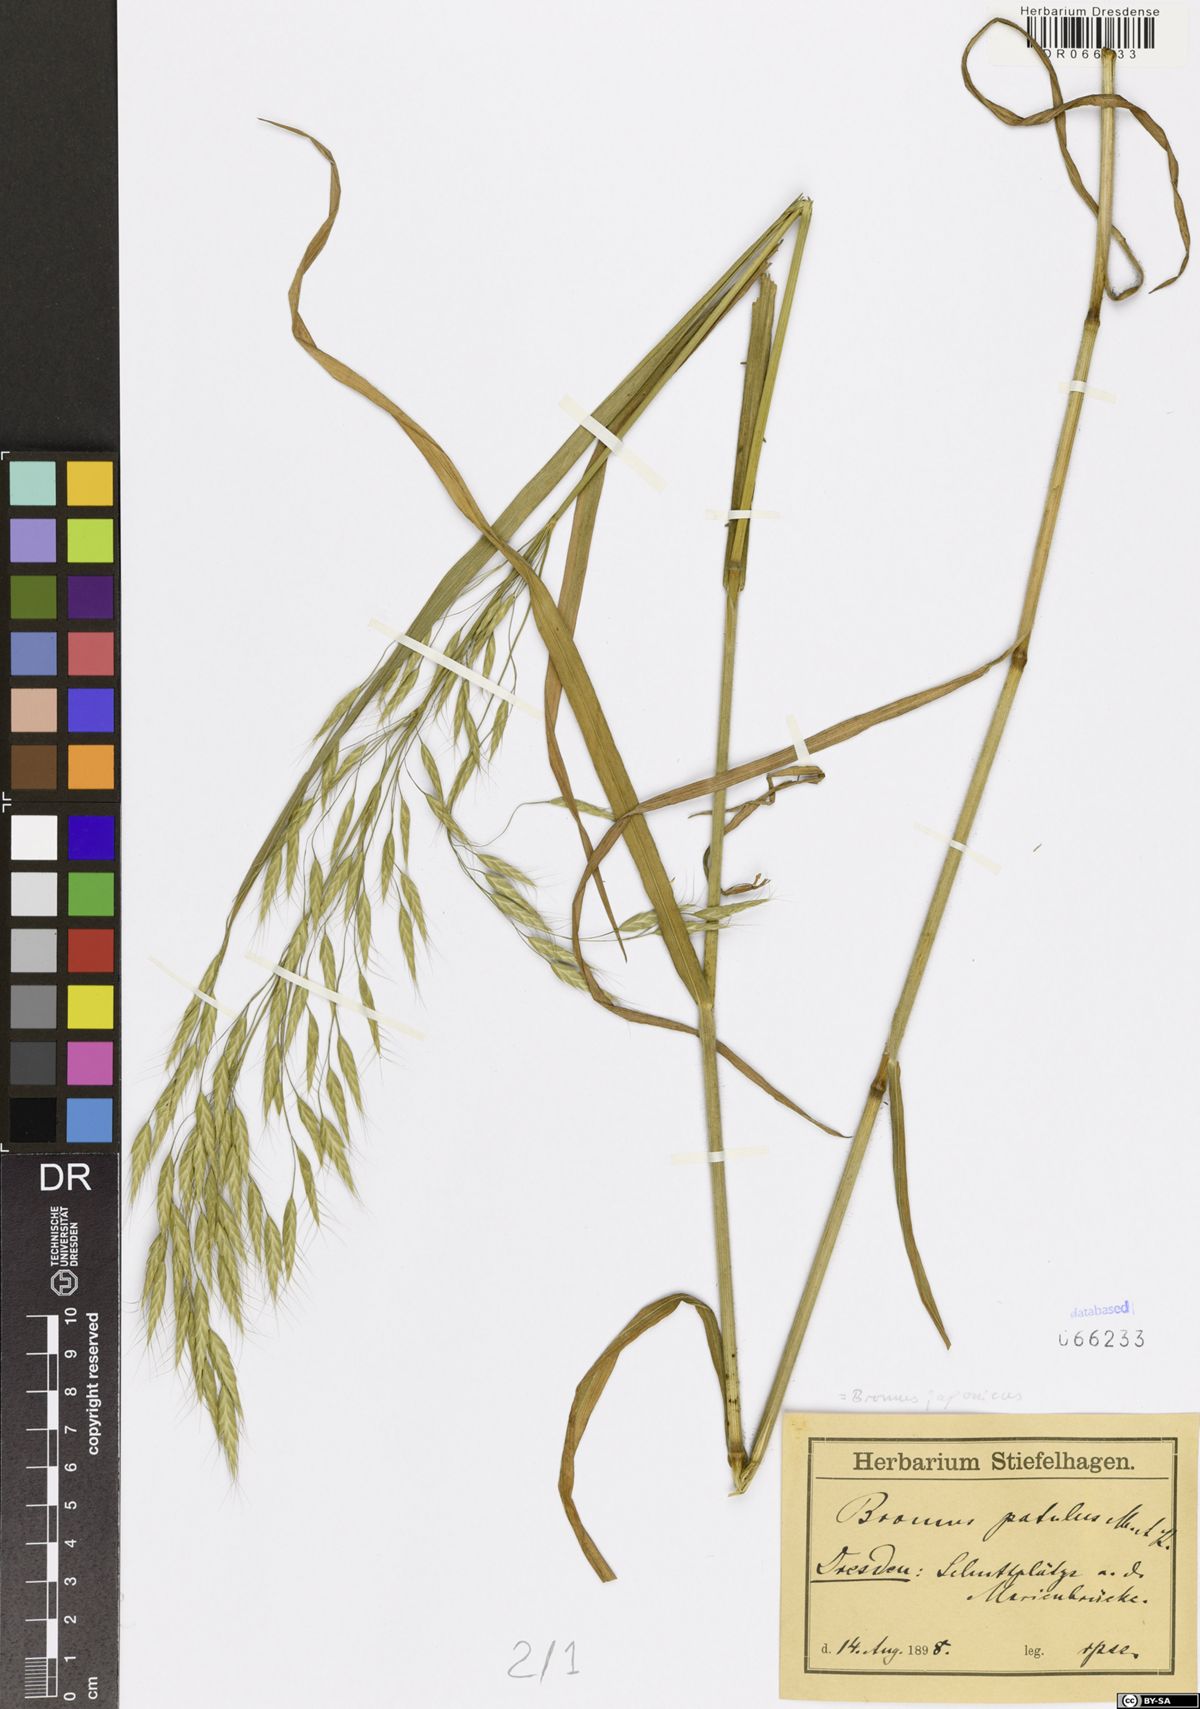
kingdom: Plantae
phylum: Tracheophyta
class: Liliopsida
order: Poales
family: Poaceae
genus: Bromus
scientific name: Bromus japonicus
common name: Japanese brome
